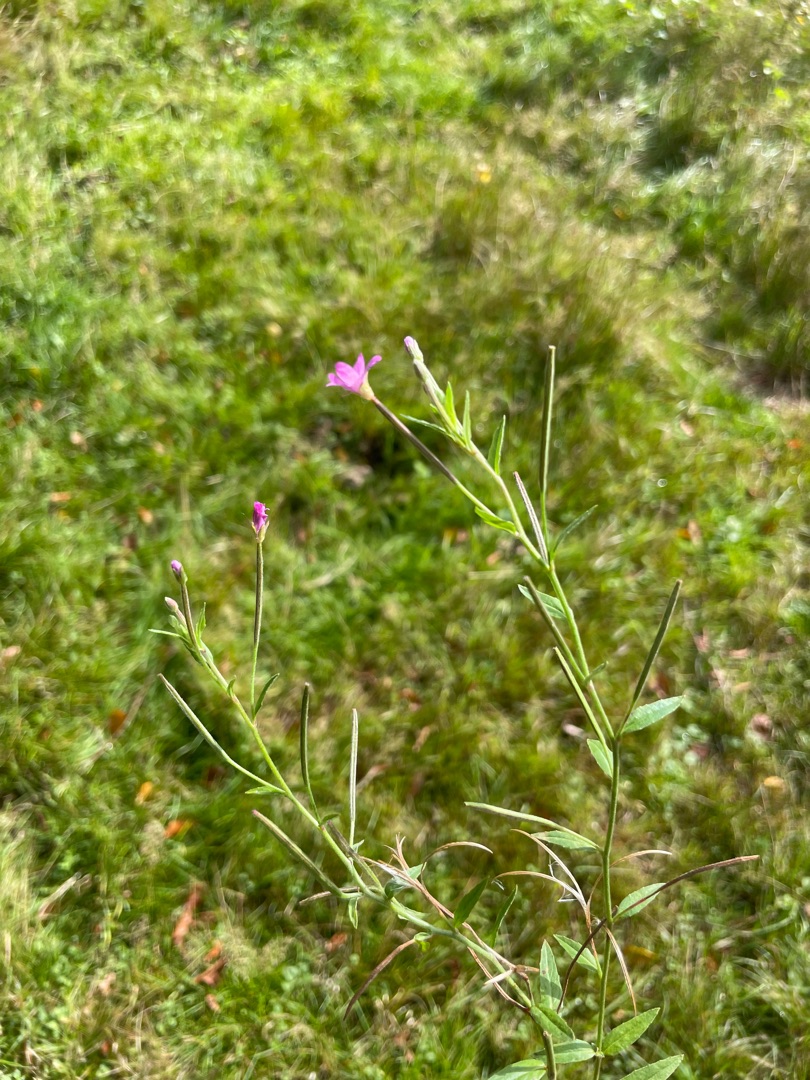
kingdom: Plantae
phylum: Tracheophyta
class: Magnoliopsida
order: Myrtales
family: Onagraceae
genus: Epilobium
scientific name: Epilobium
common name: Dueurtslægten
